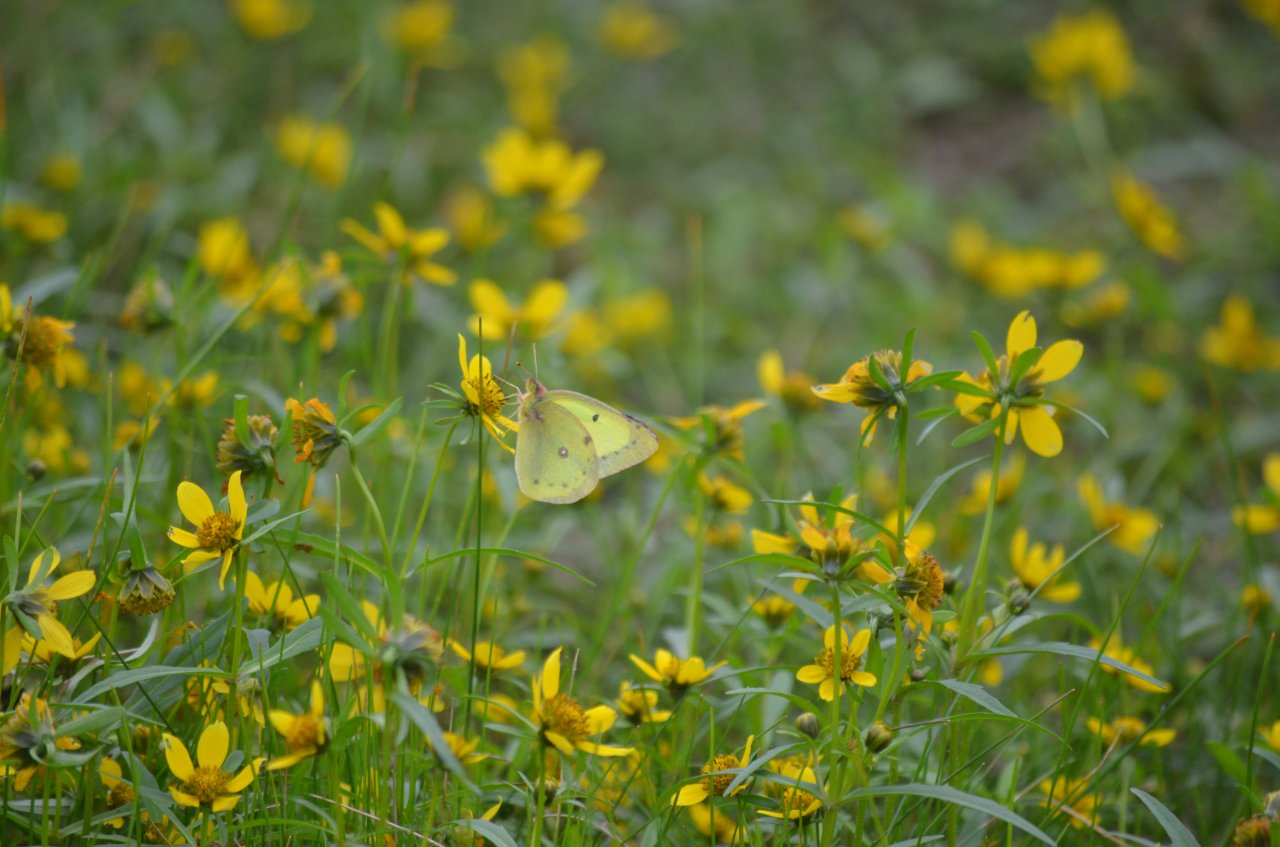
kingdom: Animalia
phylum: Arthropoda
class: Insecta
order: Lepidoptera
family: Pieridae
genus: Colias
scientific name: Colias philodice
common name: Clouded Sulphur
